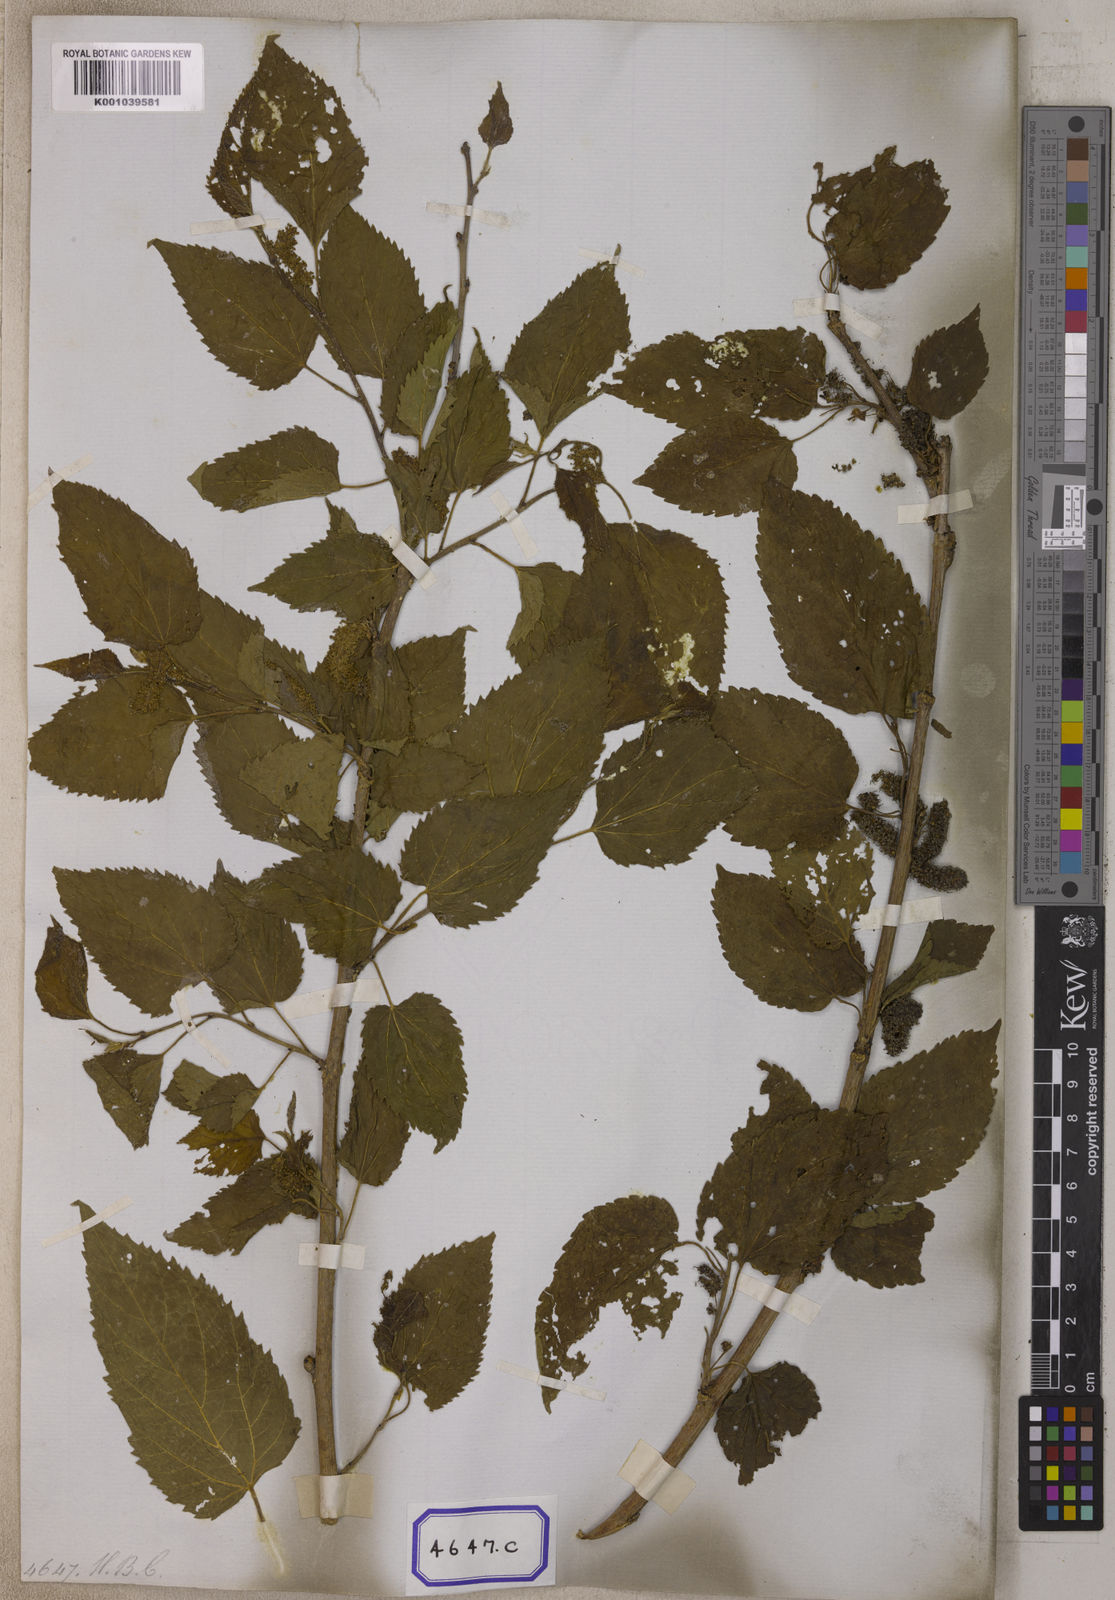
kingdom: Plantae
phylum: Tracheophyta
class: Magnoliopsida
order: Rosales
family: Moraceae
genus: Morus
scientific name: Morus alba
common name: White mulberry
